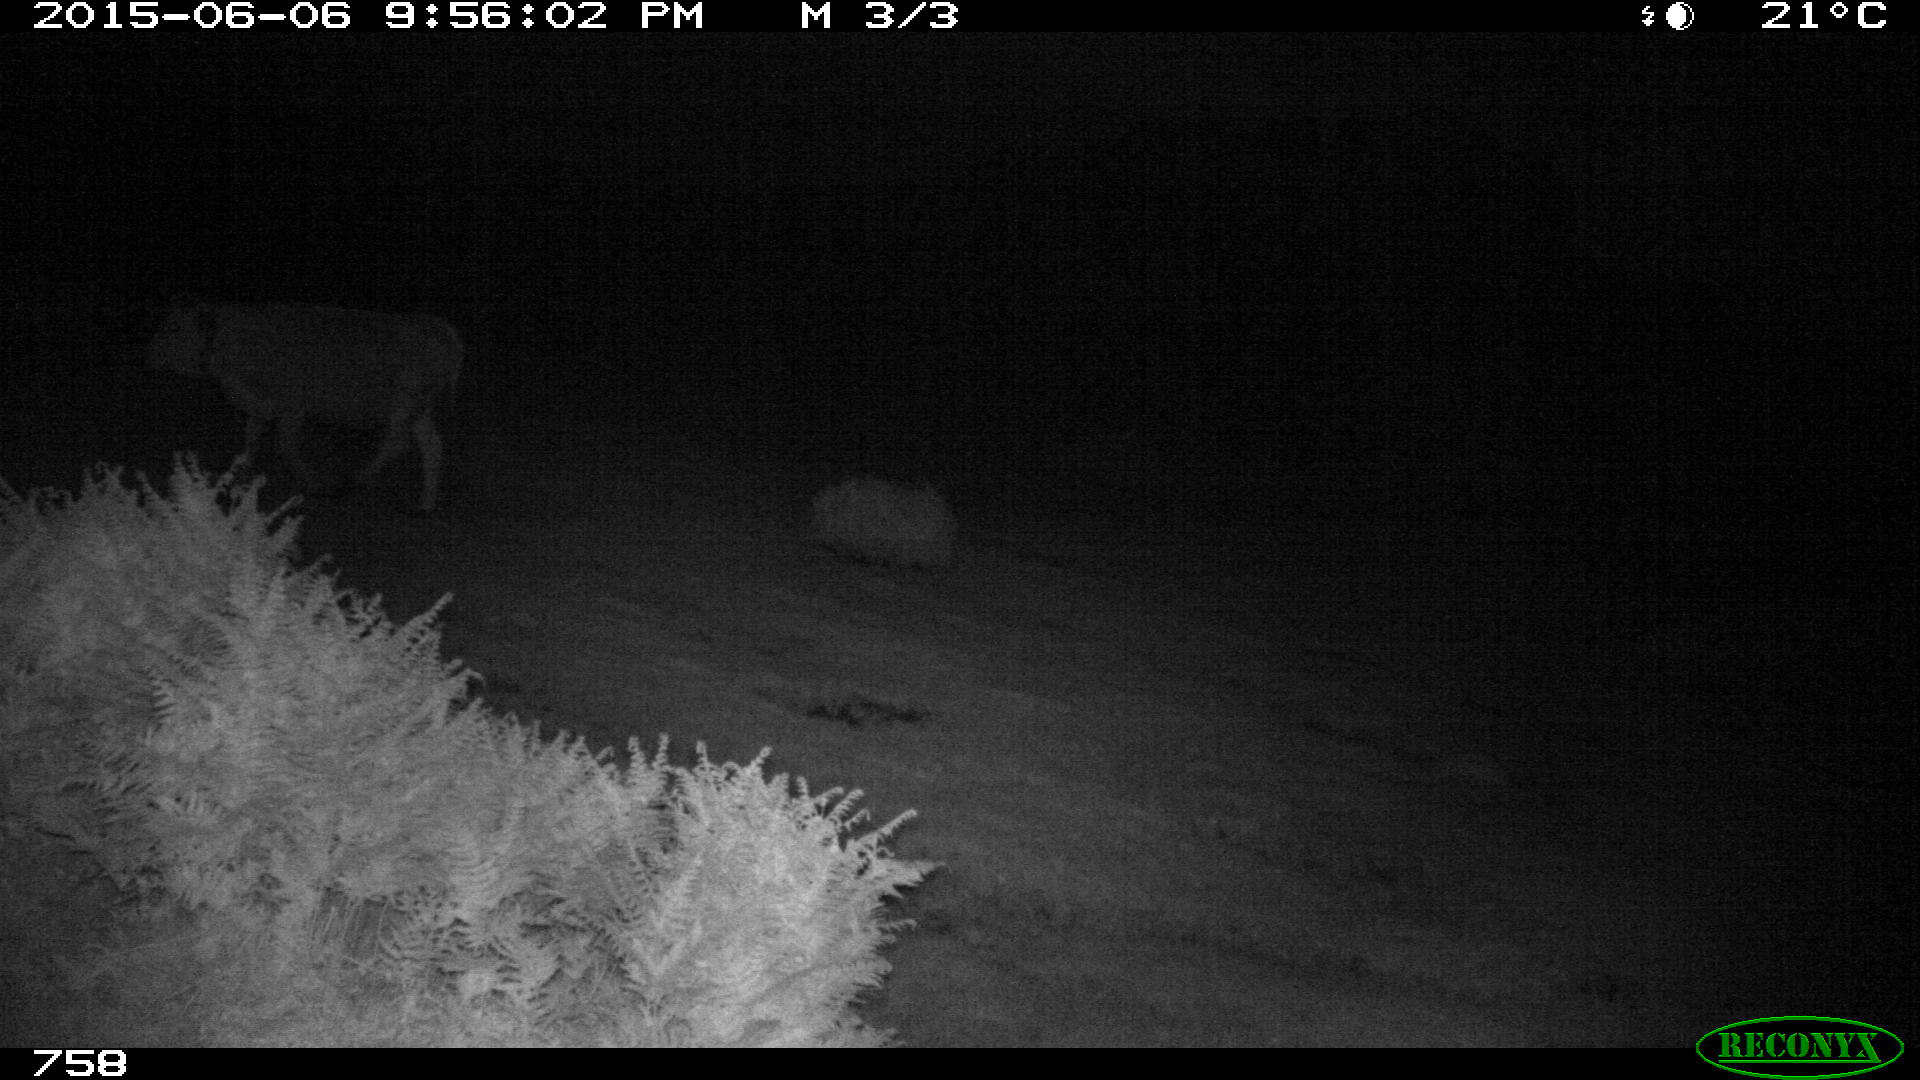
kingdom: Animalia
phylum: Chordata
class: Mammalia
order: Artiodactyla
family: Bovidae
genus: Bos
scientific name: Bos taurus
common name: Domesticated cattle
